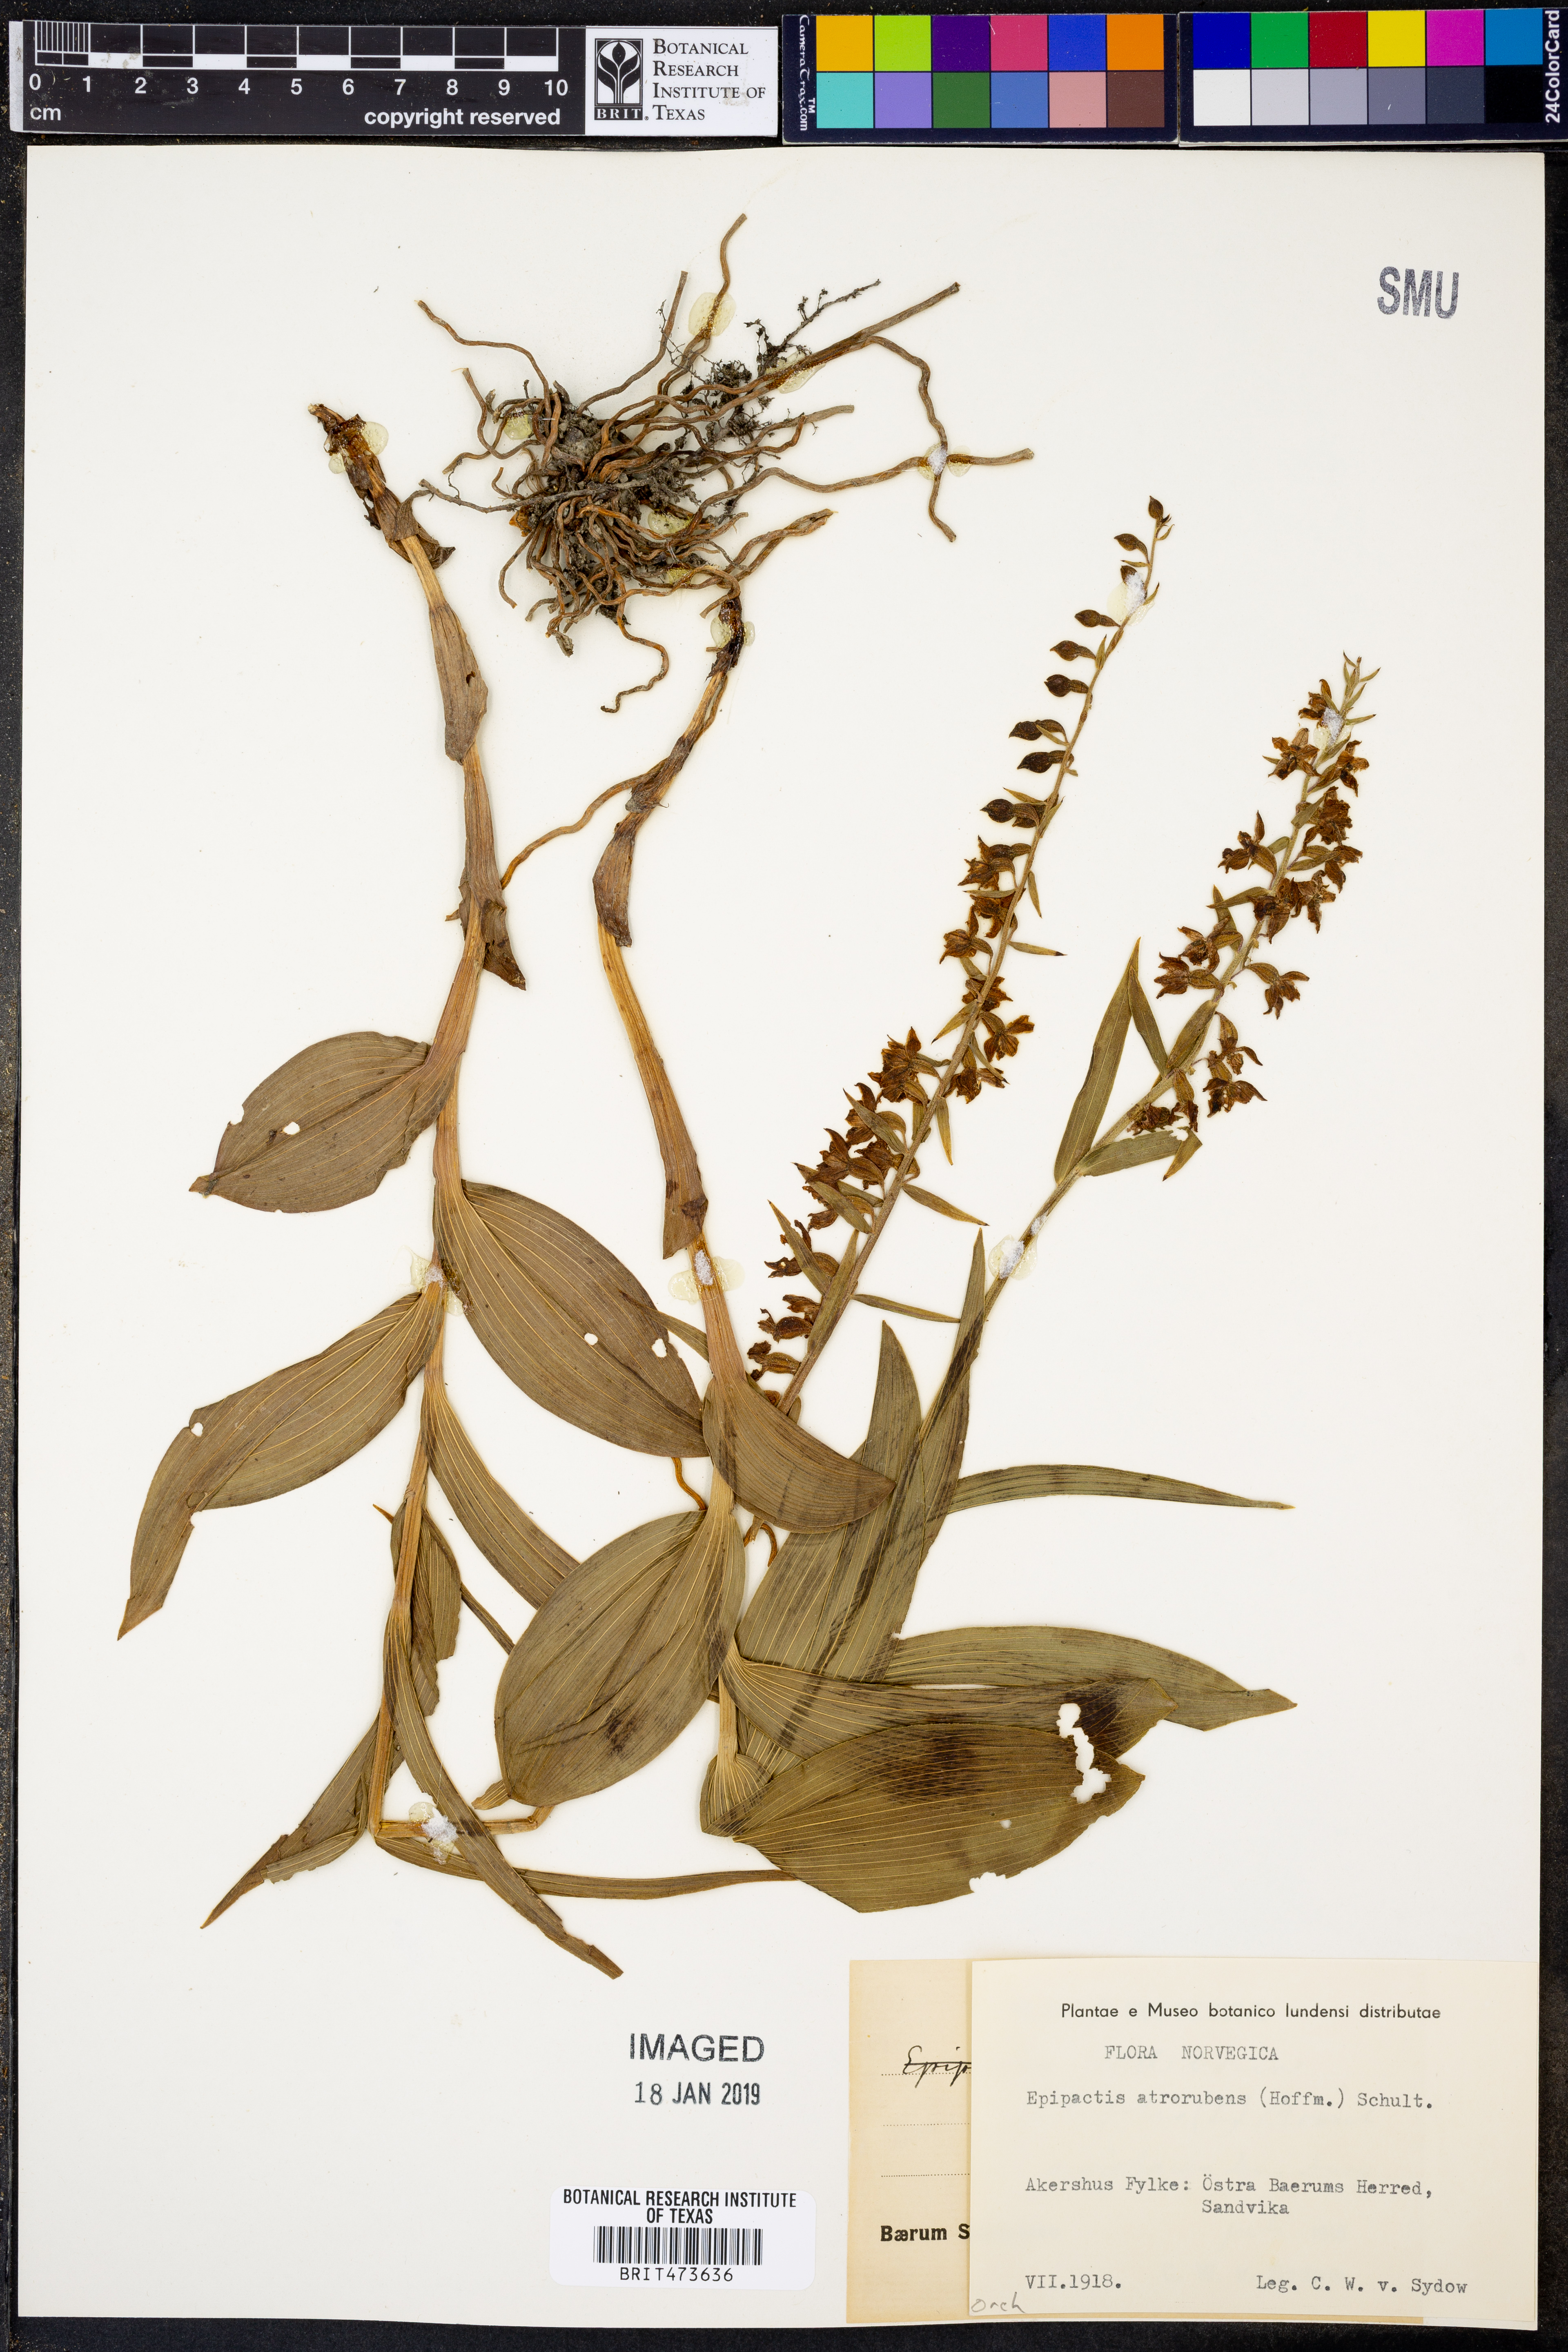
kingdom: Plantae
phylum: Tracheophyta
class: Liliopsida
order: Asparagales
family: Orchidaceae
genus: Epipactis
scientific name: Epipactis atrorubens
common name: Dark-red helleborine
